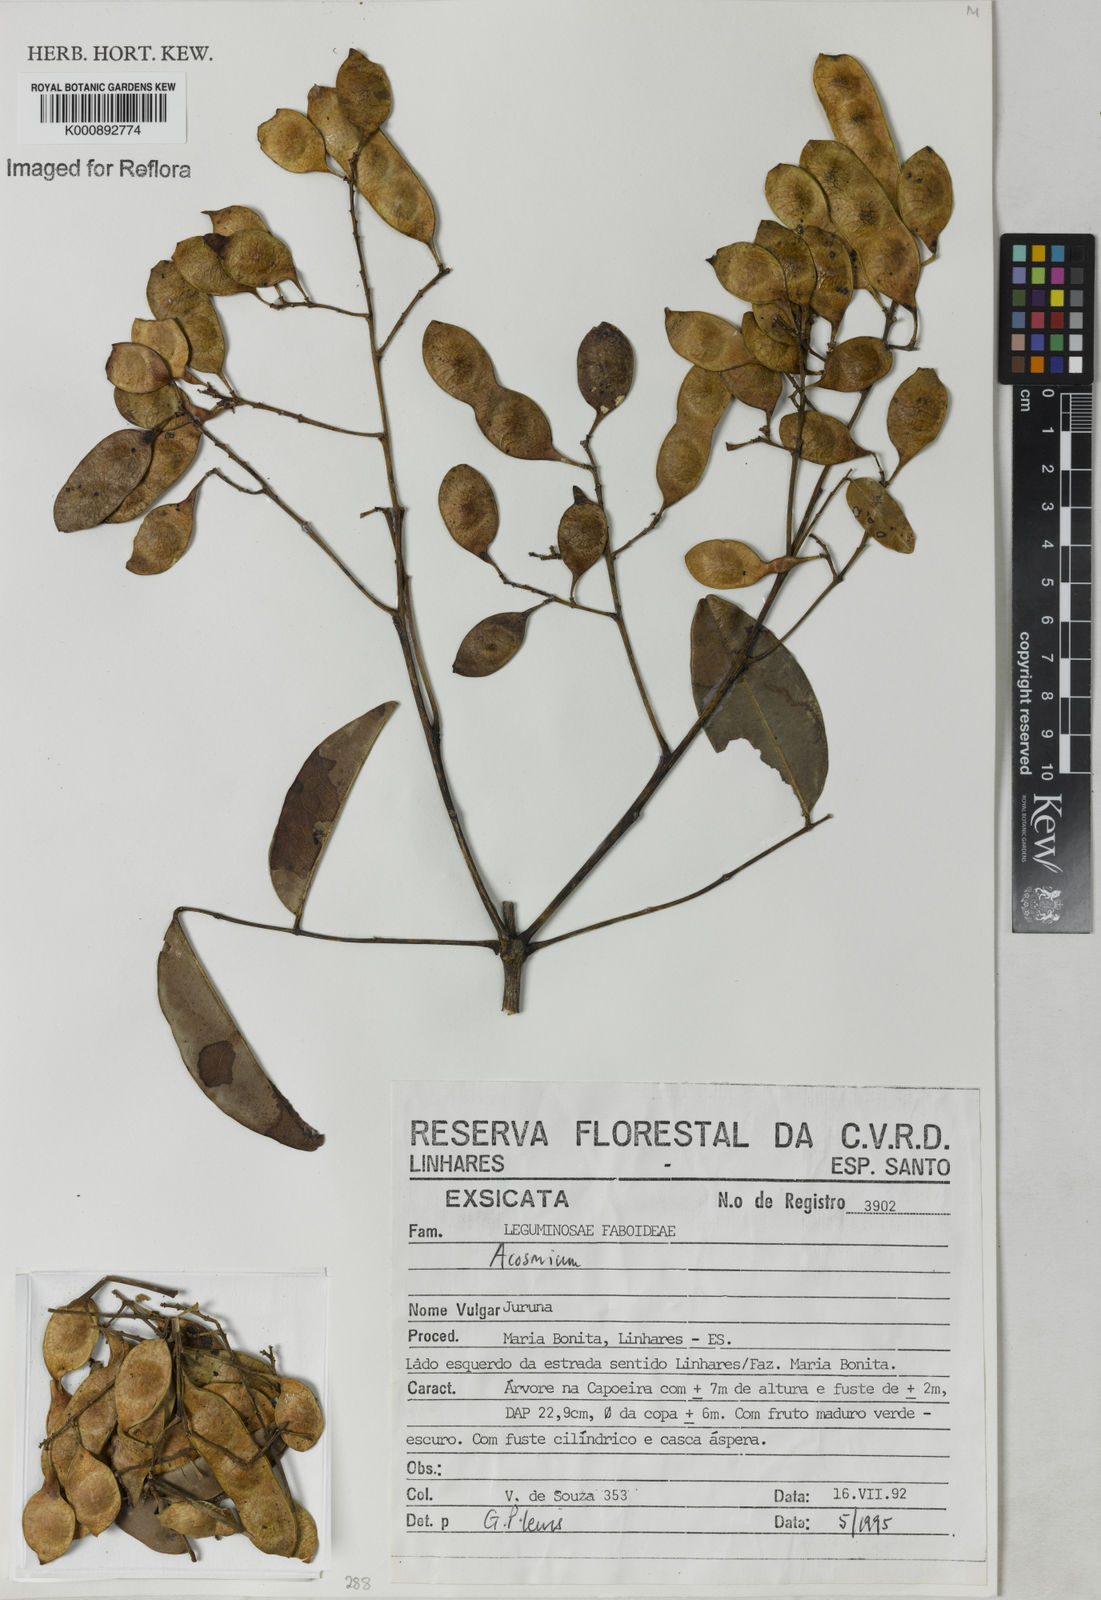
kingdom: Plantae
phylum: Tracheophyta
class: Magnoliopsida
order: Fabales
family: Fabaceae
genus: Leptolobium
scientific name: Leptolobium
